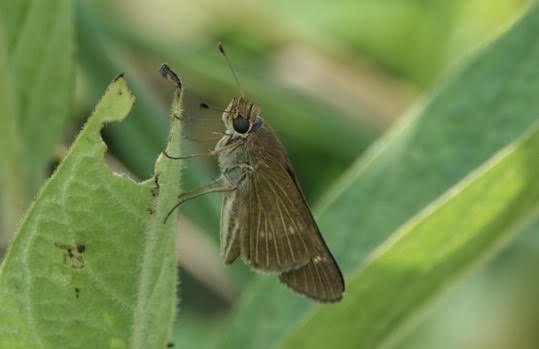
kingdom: Animalia
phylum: Arthropoda
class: Insecta
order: Lepidoptera
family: Hesperiidae
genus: Panoquina
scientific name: Panoquina ocola
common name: Ocola Skipper
